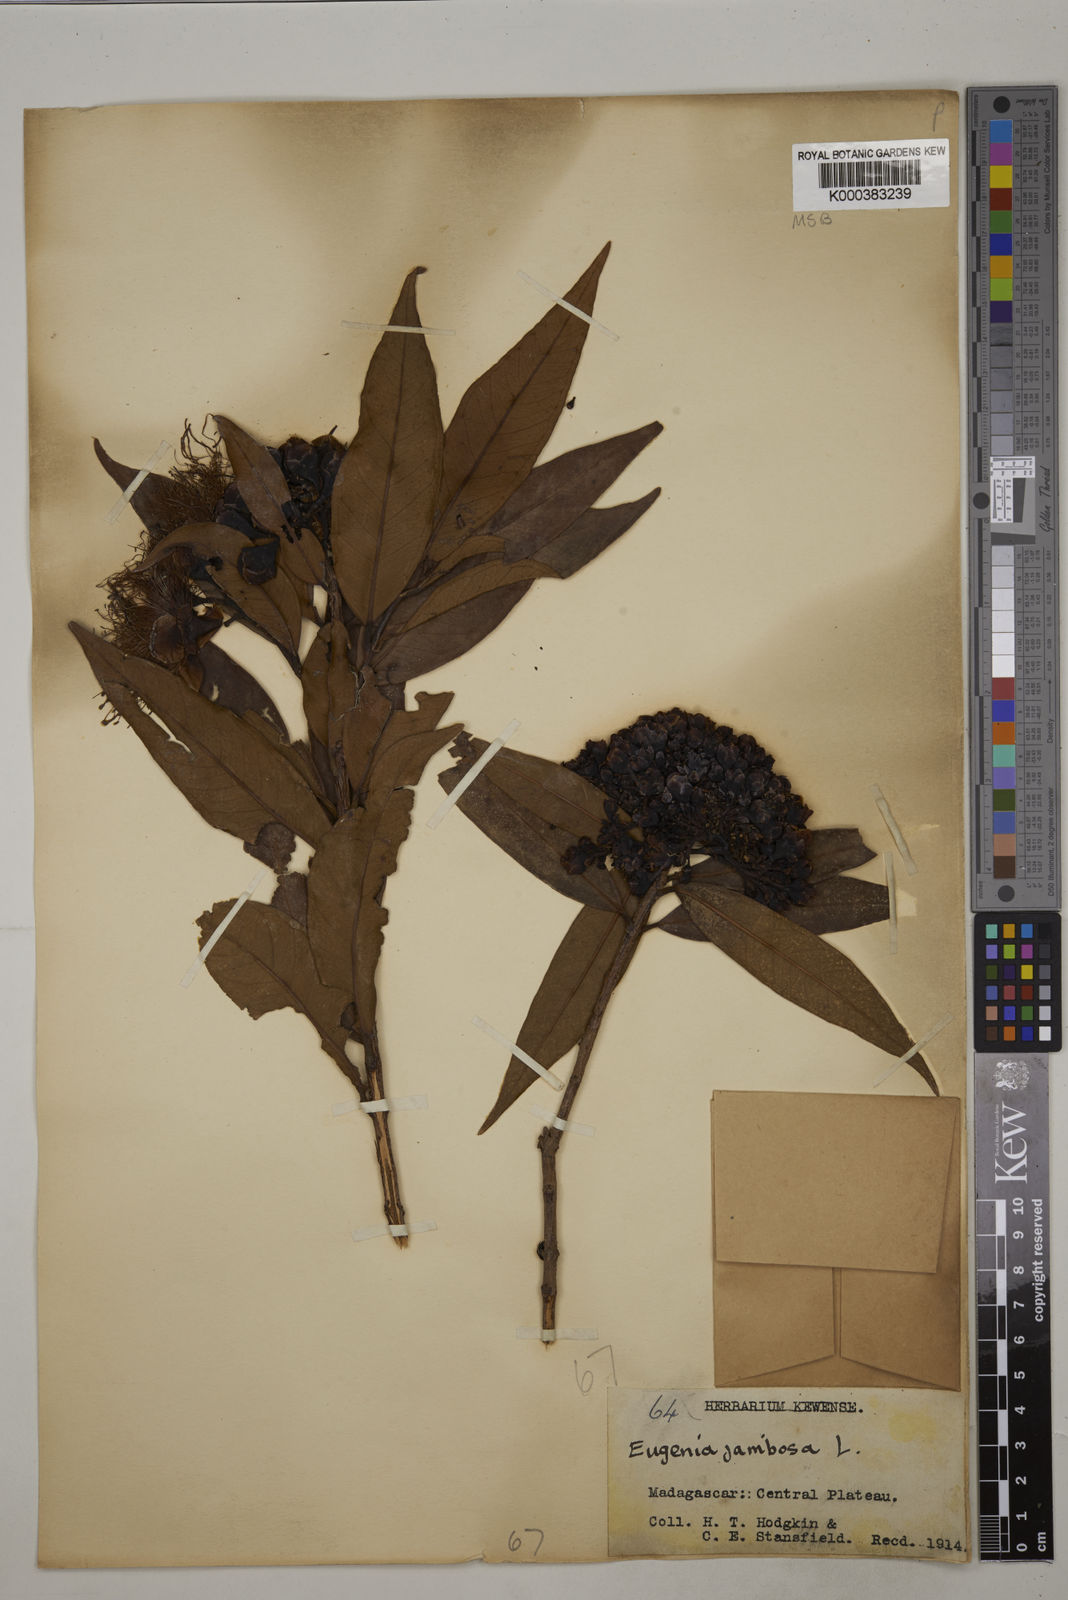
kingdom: Plantae
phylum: Tracheophyta
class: Magnoliopsida
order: Myrtales
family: Myrtaceae
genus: Syzygium
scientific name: Syzygium jambos
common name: Malabar plum
